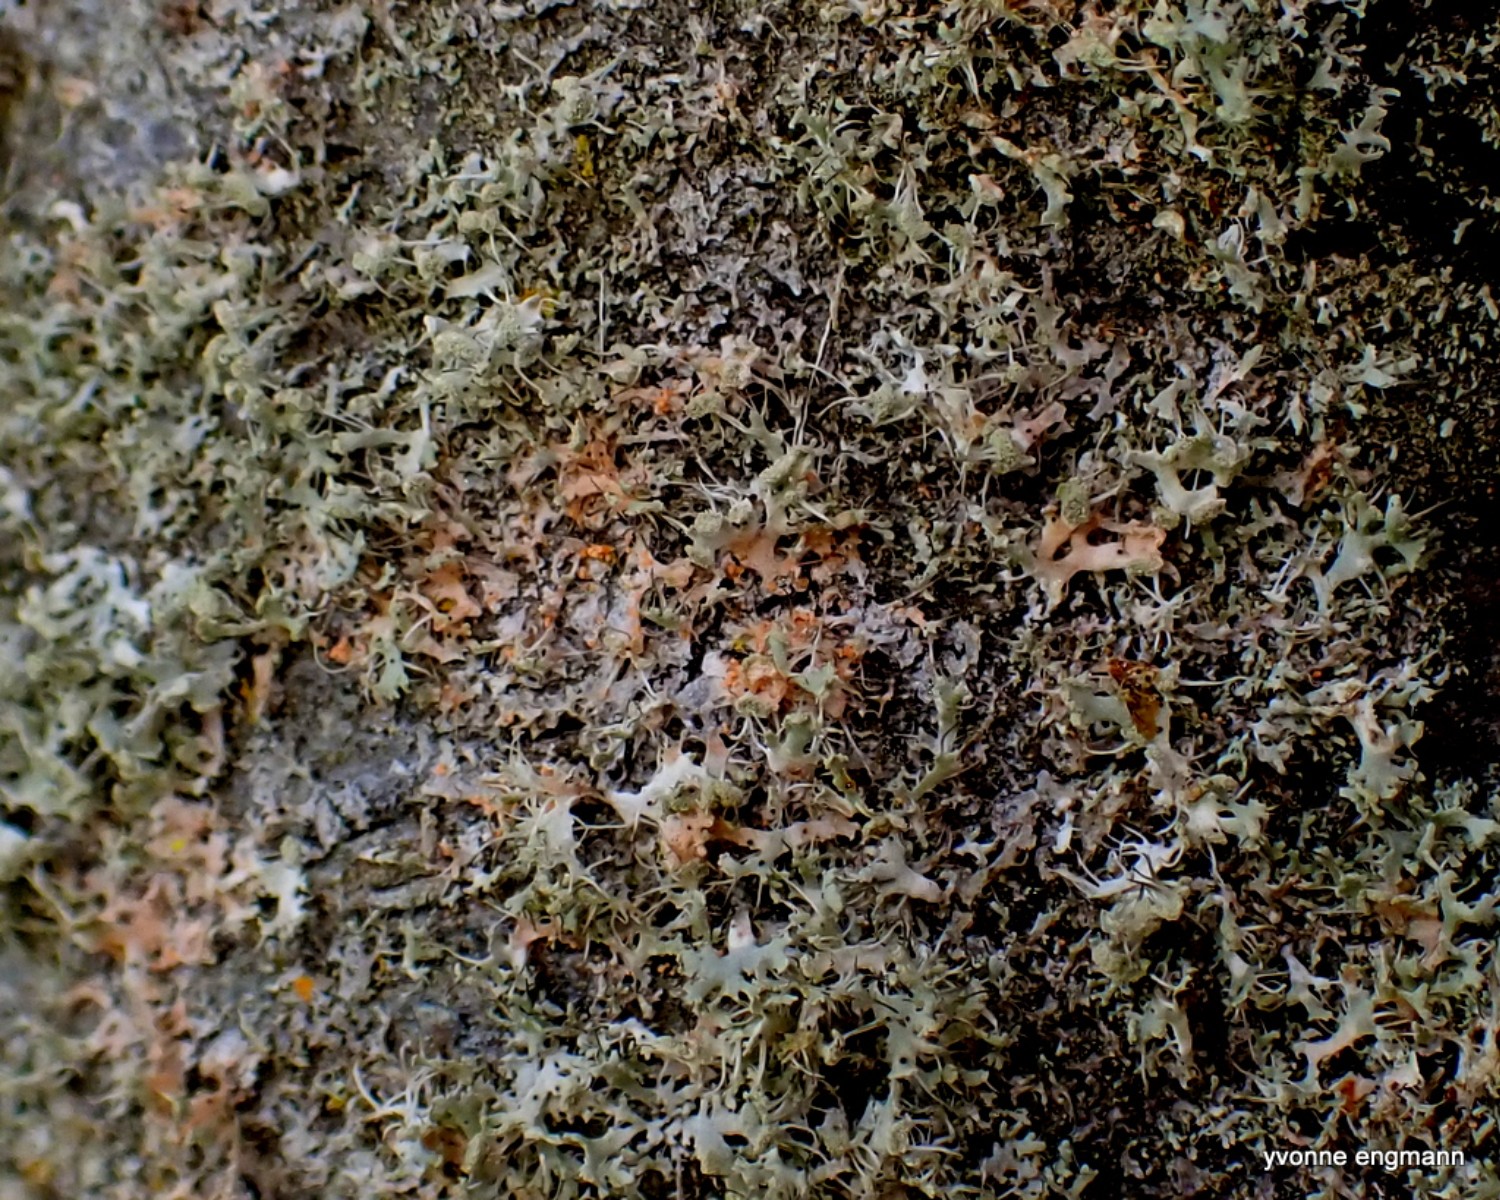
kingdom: Fungi
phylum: Basidiomycota
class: Agaricomycetes
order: Corticiales
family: Corticiaceae
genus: Erythricium
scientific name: Erythricium aurantiacum
